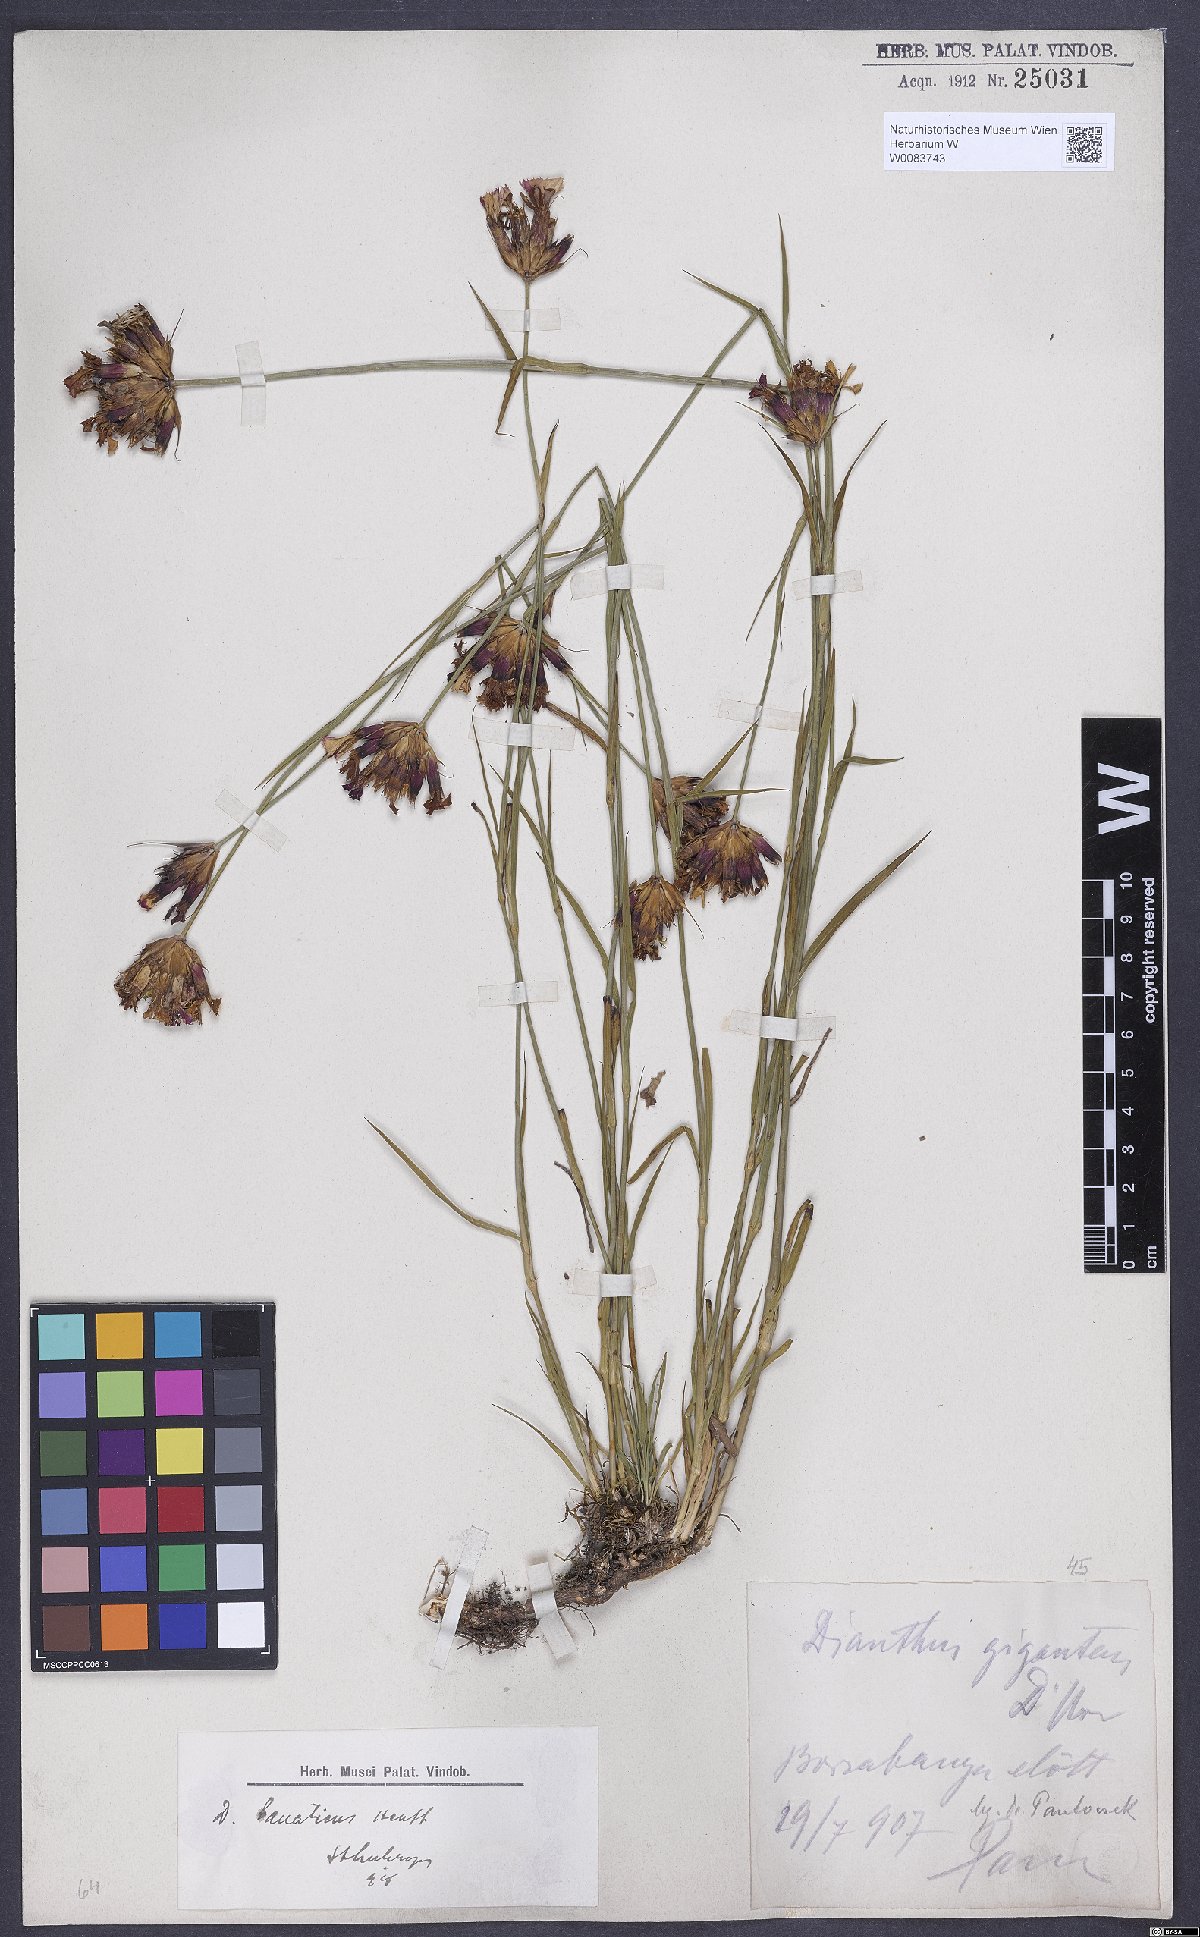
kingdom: Plantae
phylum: Tracheophyta
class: Magnoliopsida
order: Caryophyllales
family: Caryophyllaceae
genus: Dianthus
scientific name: Dianthus giganteus
